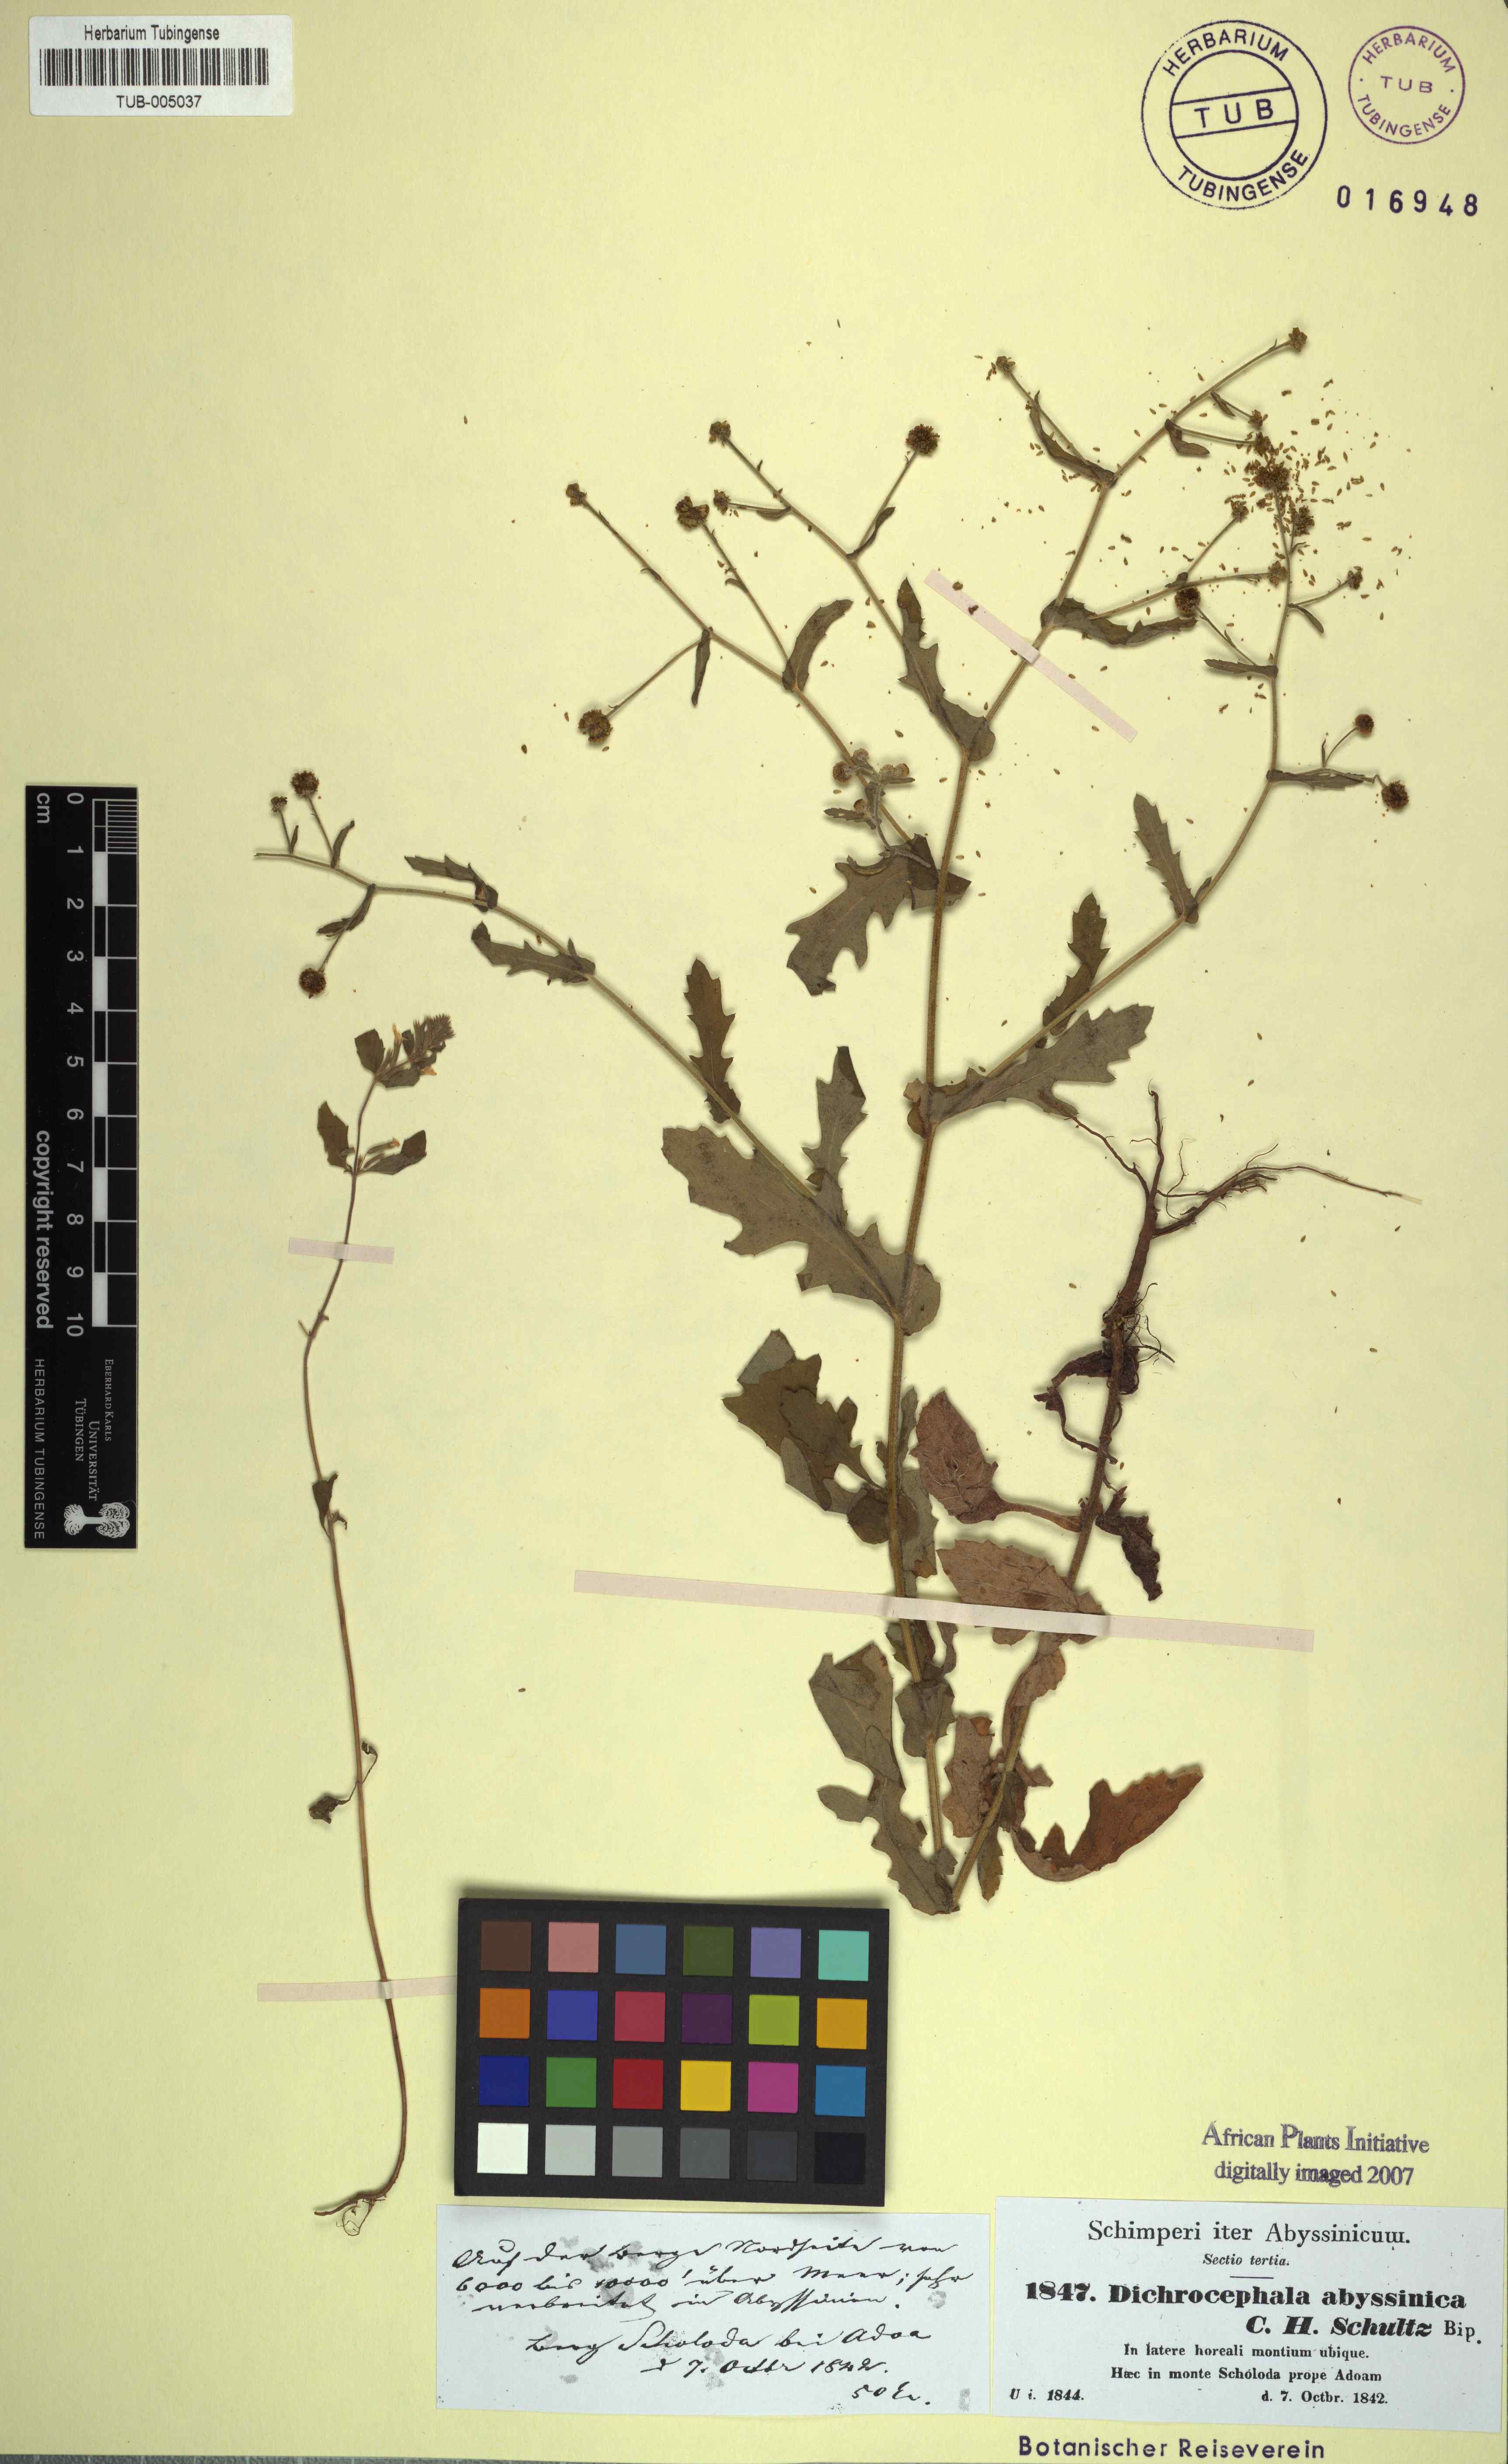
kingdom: Plantae
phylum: Tracheophyta
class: Magnoliopsida
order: Asterales
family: Asteraceae
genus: Dichrocephala
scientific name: Dichrocephala integrifolia
